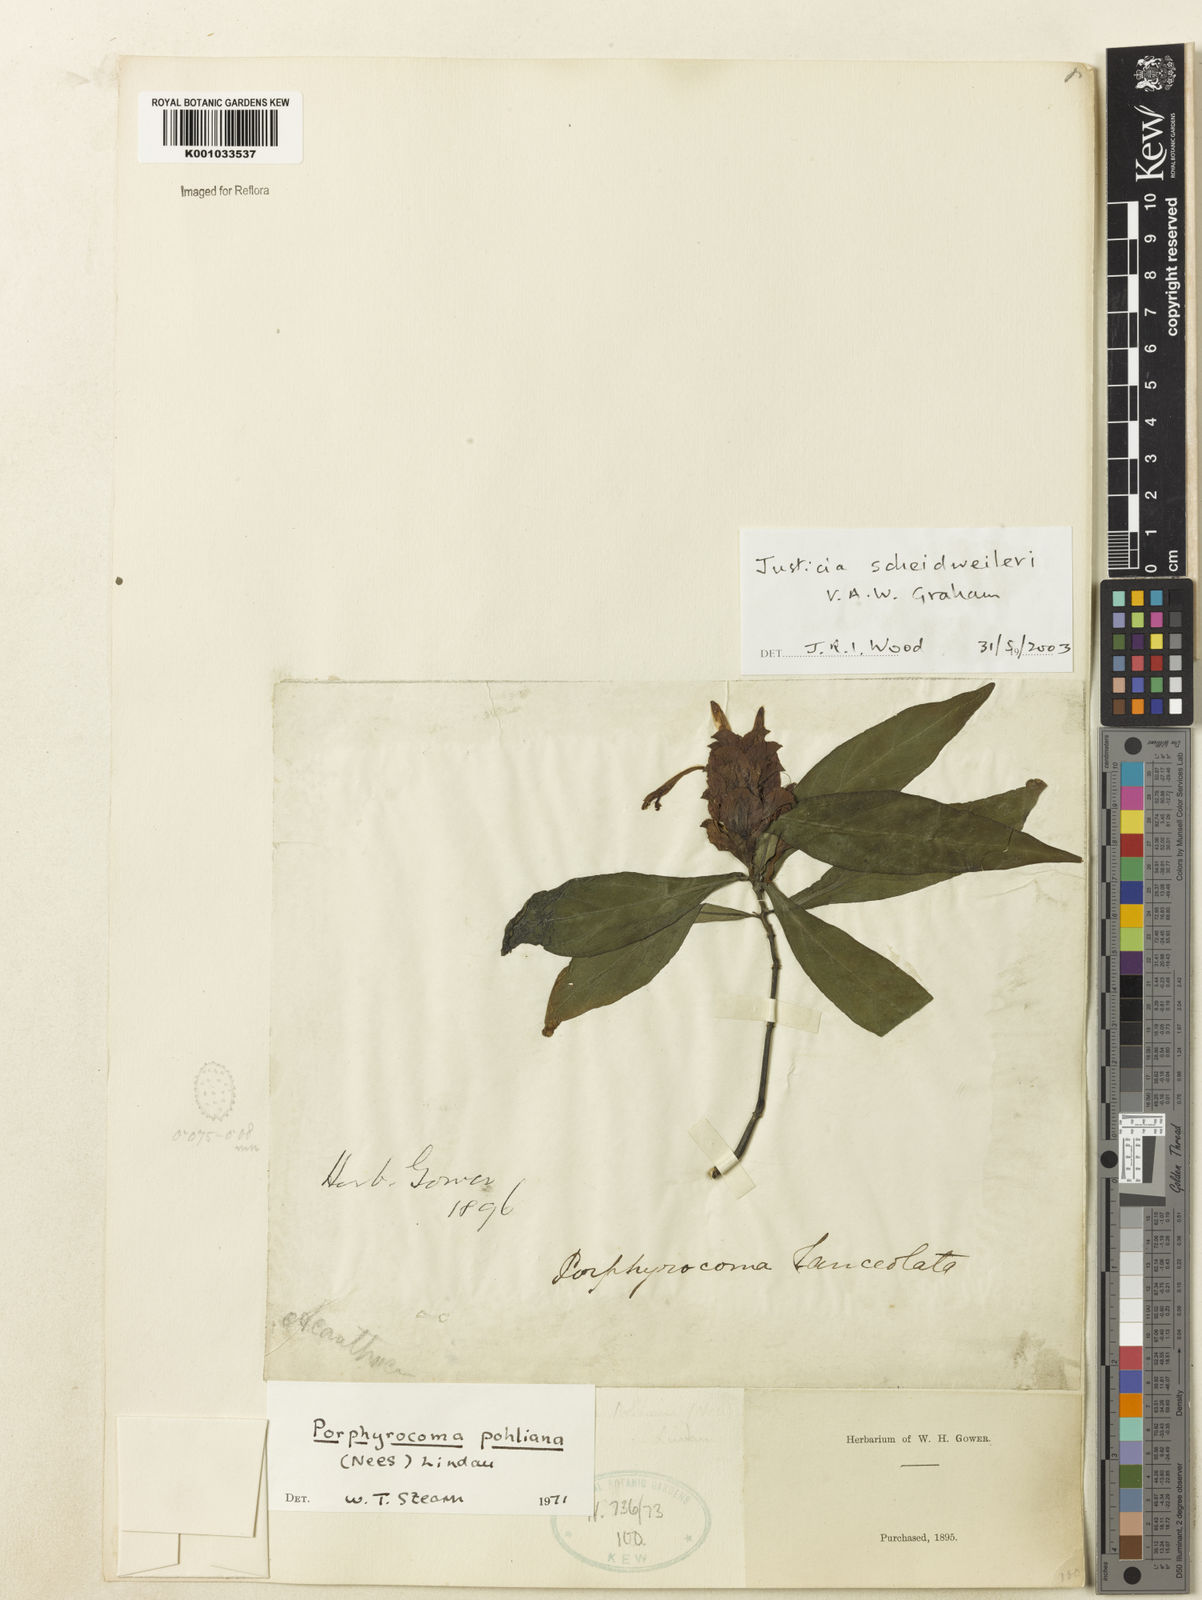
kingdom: Plantae
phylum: Tracheophyta
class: Magnoliopsida
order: Lamiales
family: Acanthaceae
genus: Justicia
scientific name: Justicia scheidweileri
